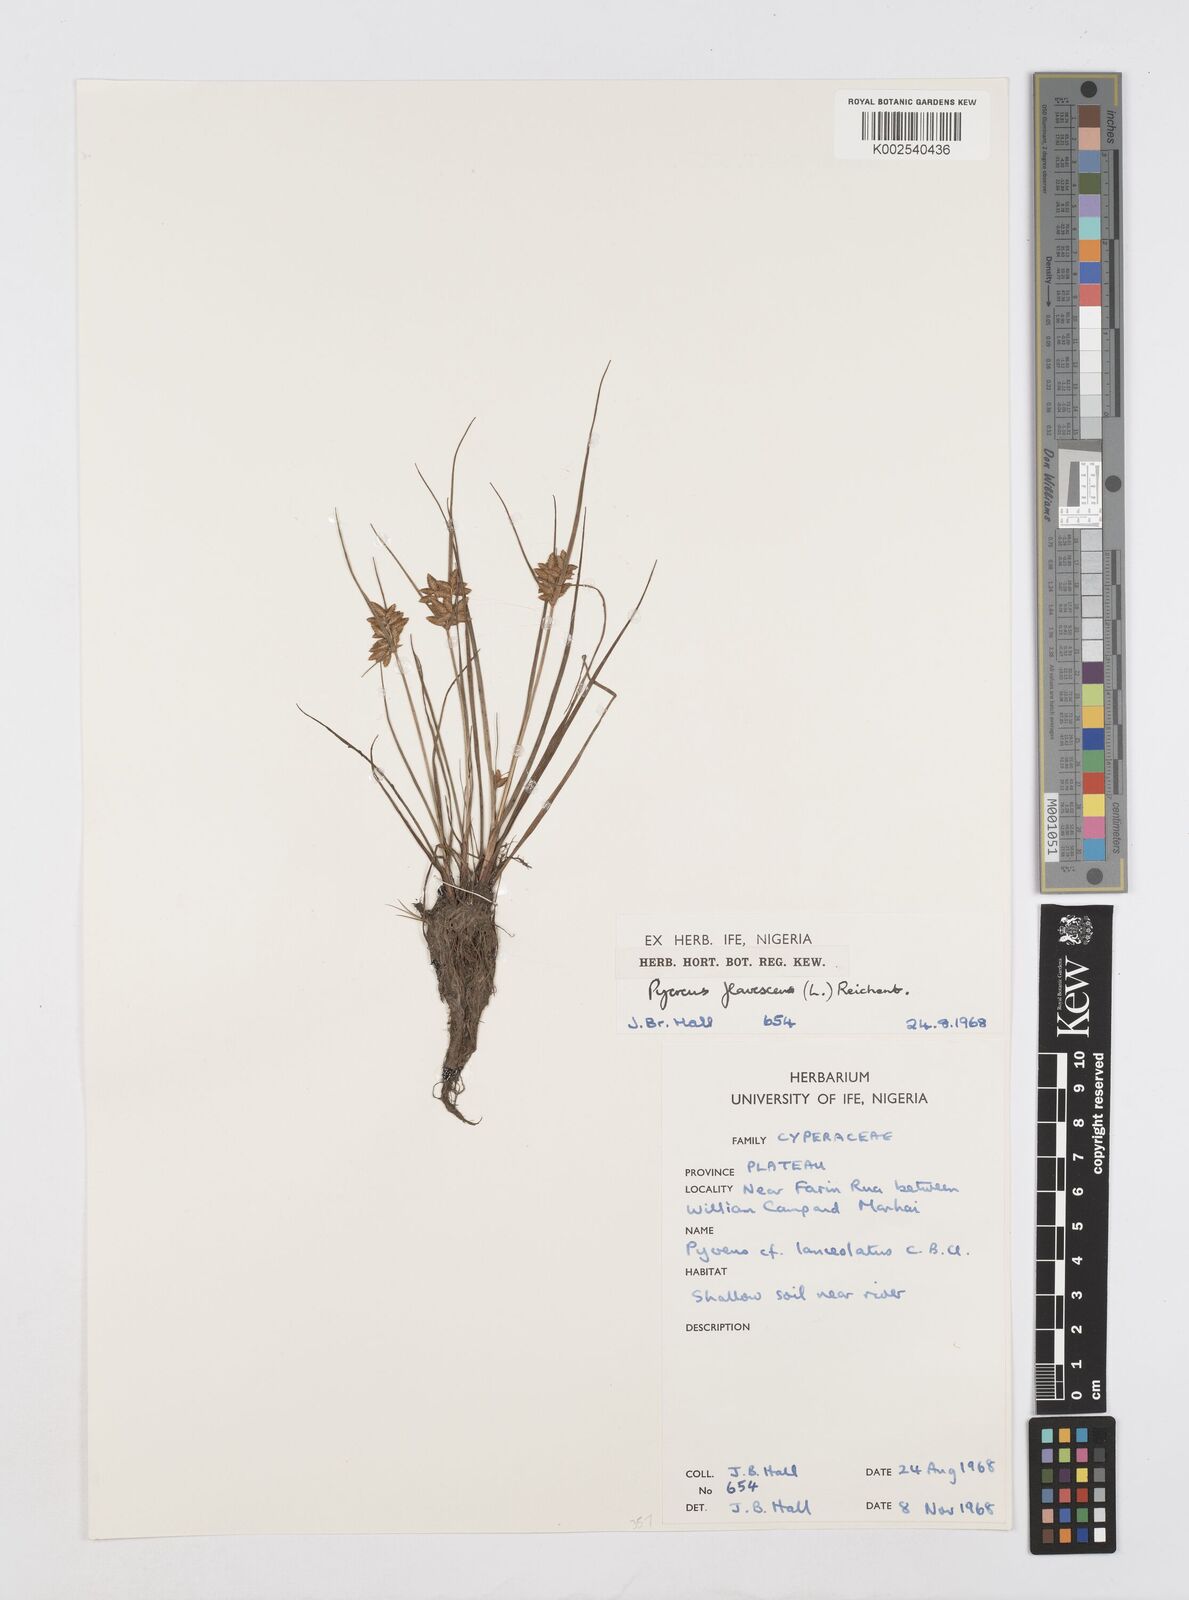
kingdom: Plantae
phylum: Tracheophyta
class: Liliopsida
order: Poales
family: Cyperaceae
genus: Cyperus
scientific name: Cyperus flavescens
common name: Yellow galingale
